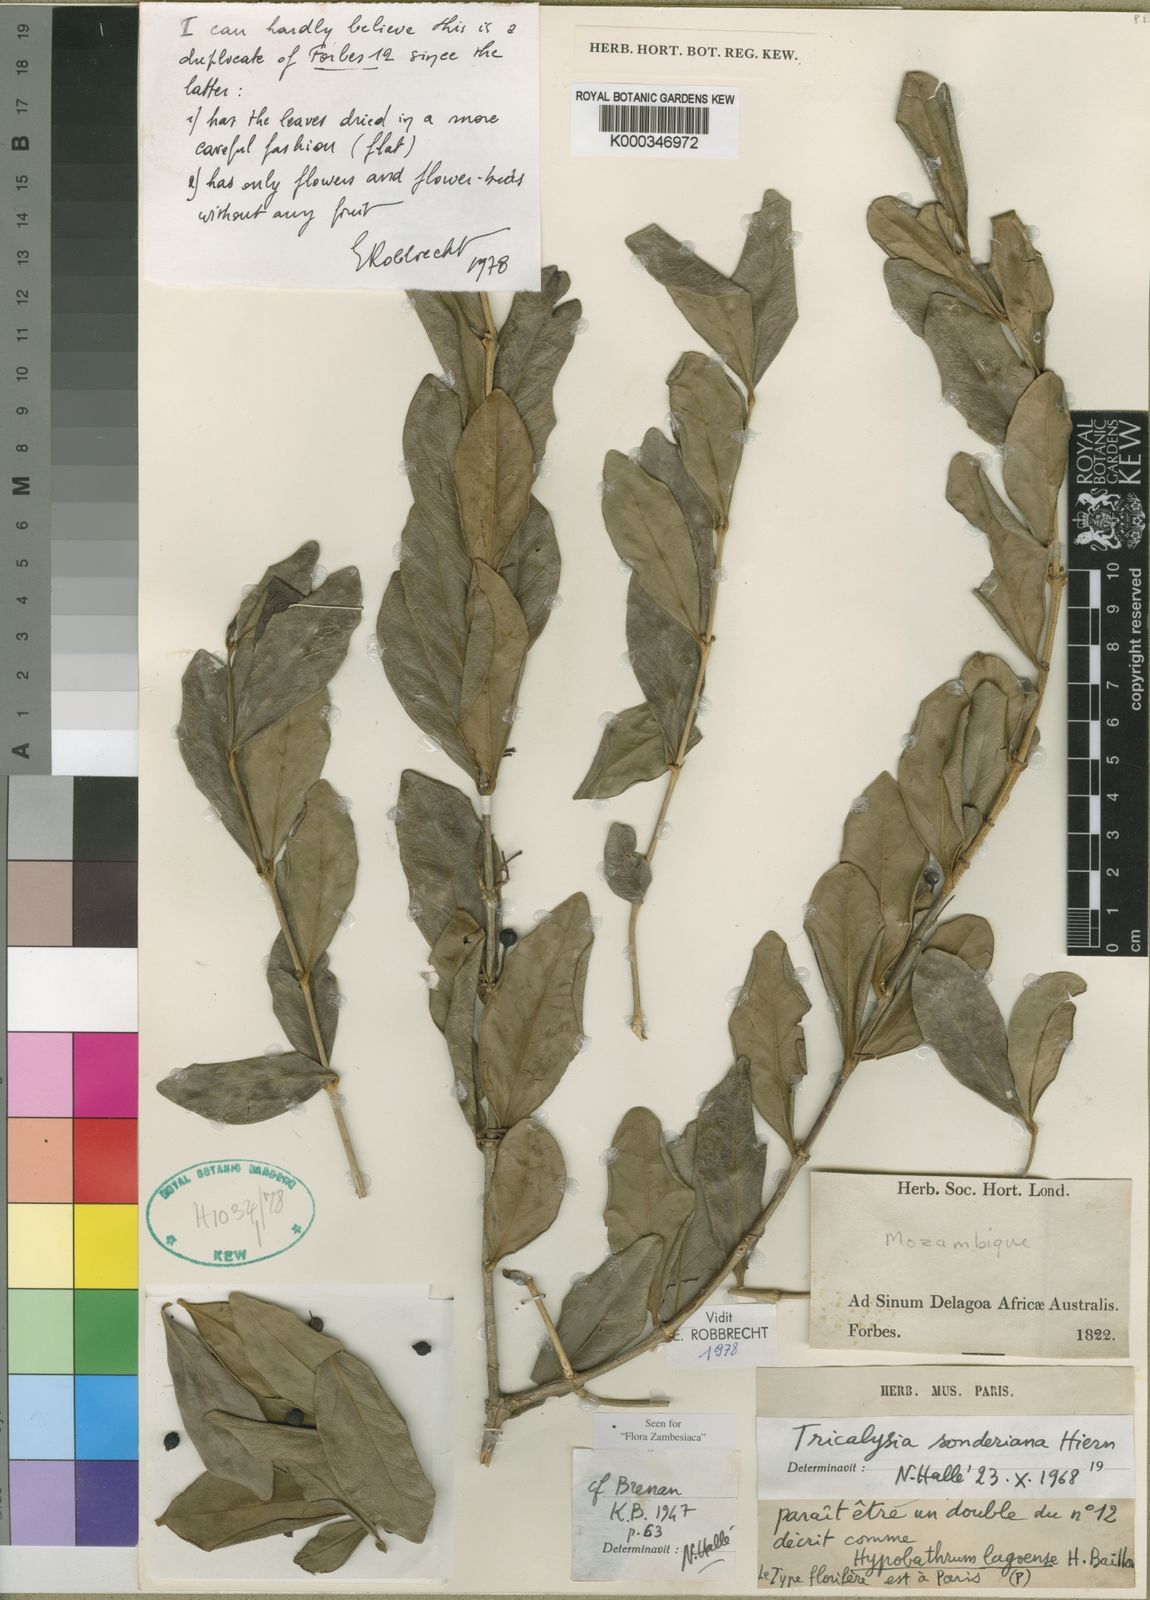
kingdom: Plantae
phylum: Tracheophyta
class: Magnoliopsida
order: Gentianales
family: Rubiaceae
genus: Empogona
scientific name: Empogona coriacea
